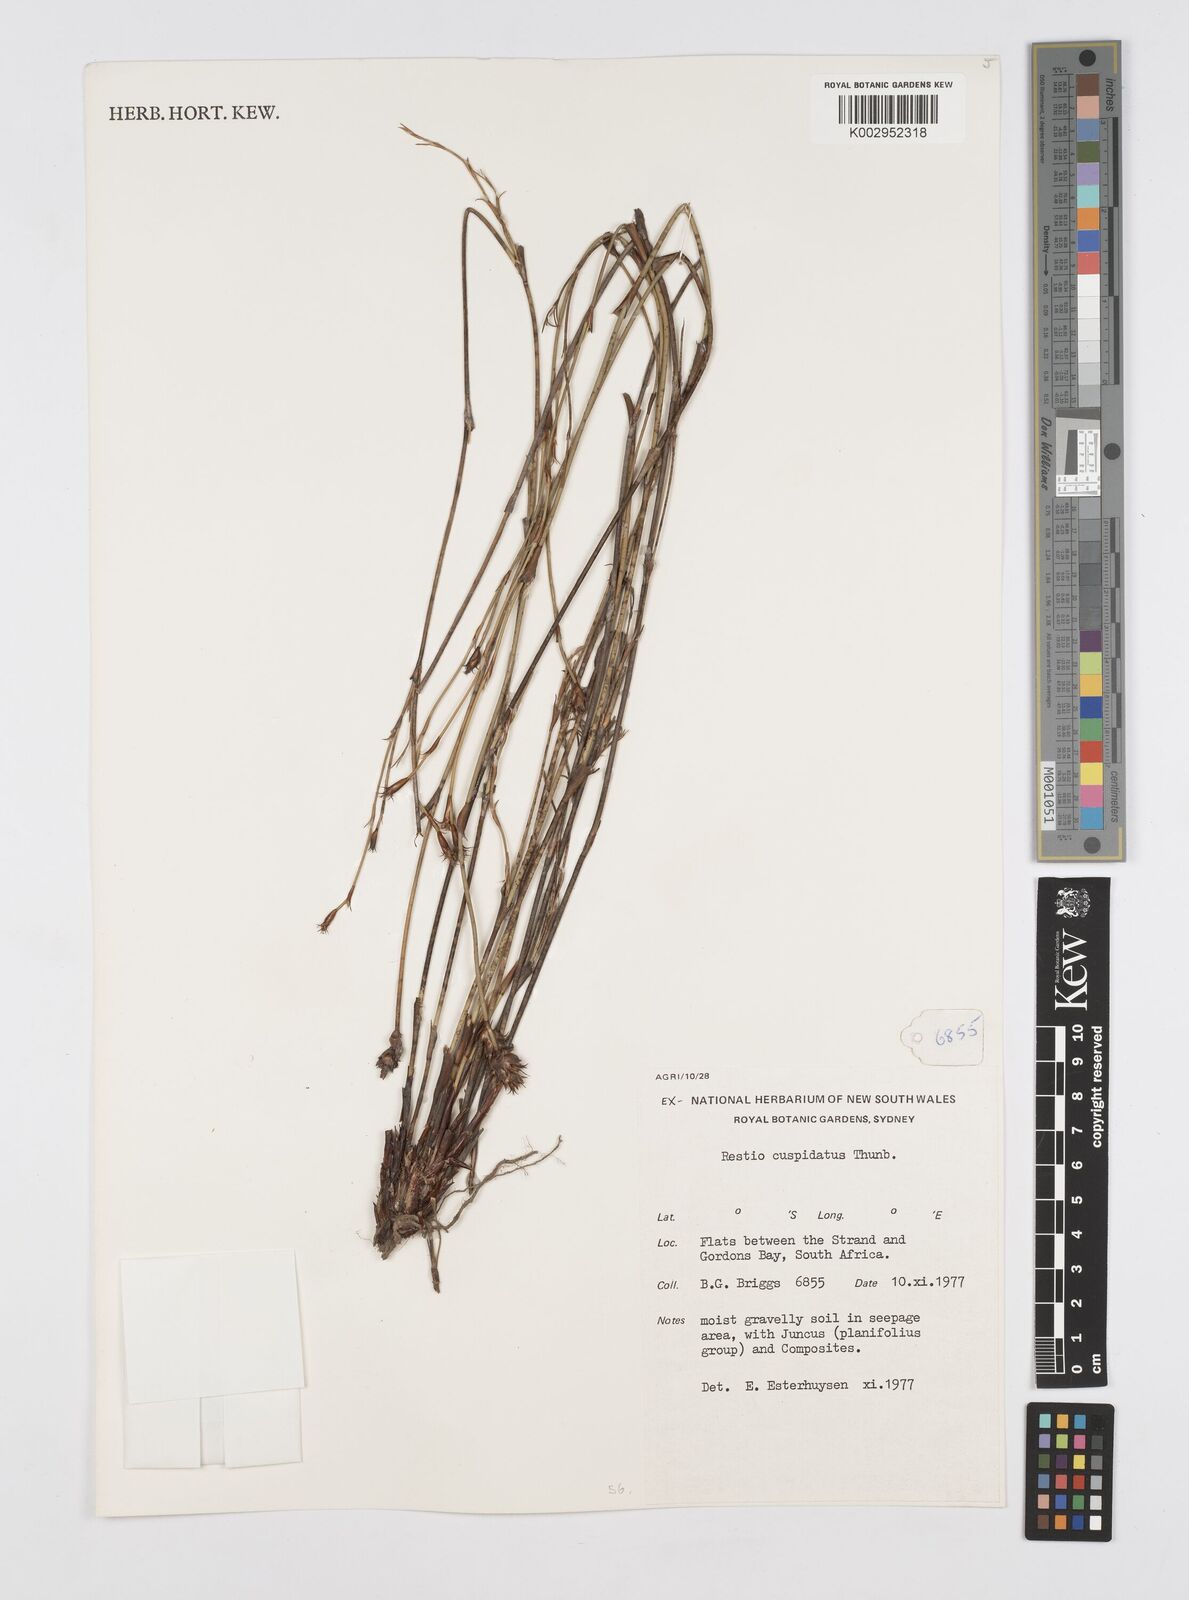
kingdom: Plantae
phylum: Tracheophyta
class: Liliopsida
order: Poales
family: Restionaceae
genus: Restio
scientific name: Restio capensis
